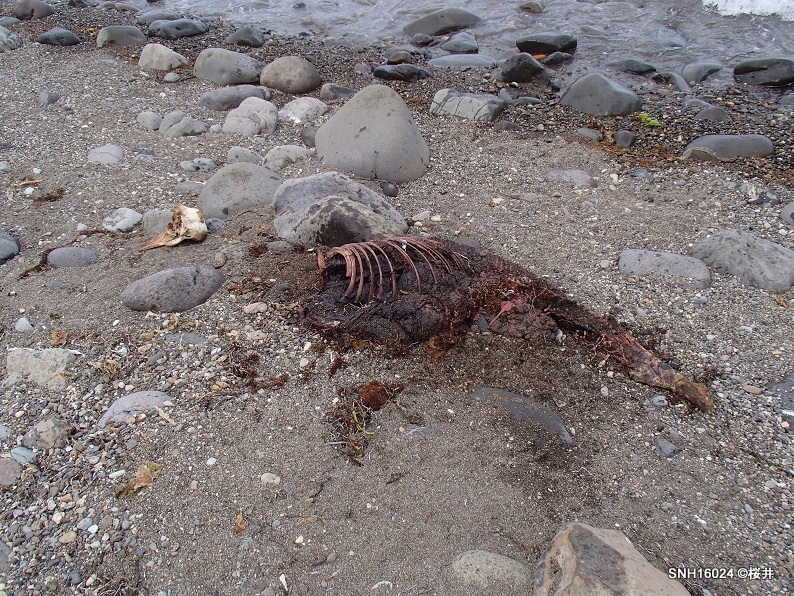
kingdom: Animalia
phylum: Chordata
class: Mammalia
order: Cetacea
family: Phocoenidae
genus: Phocoenoides
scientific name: Phocoenoides dalli
